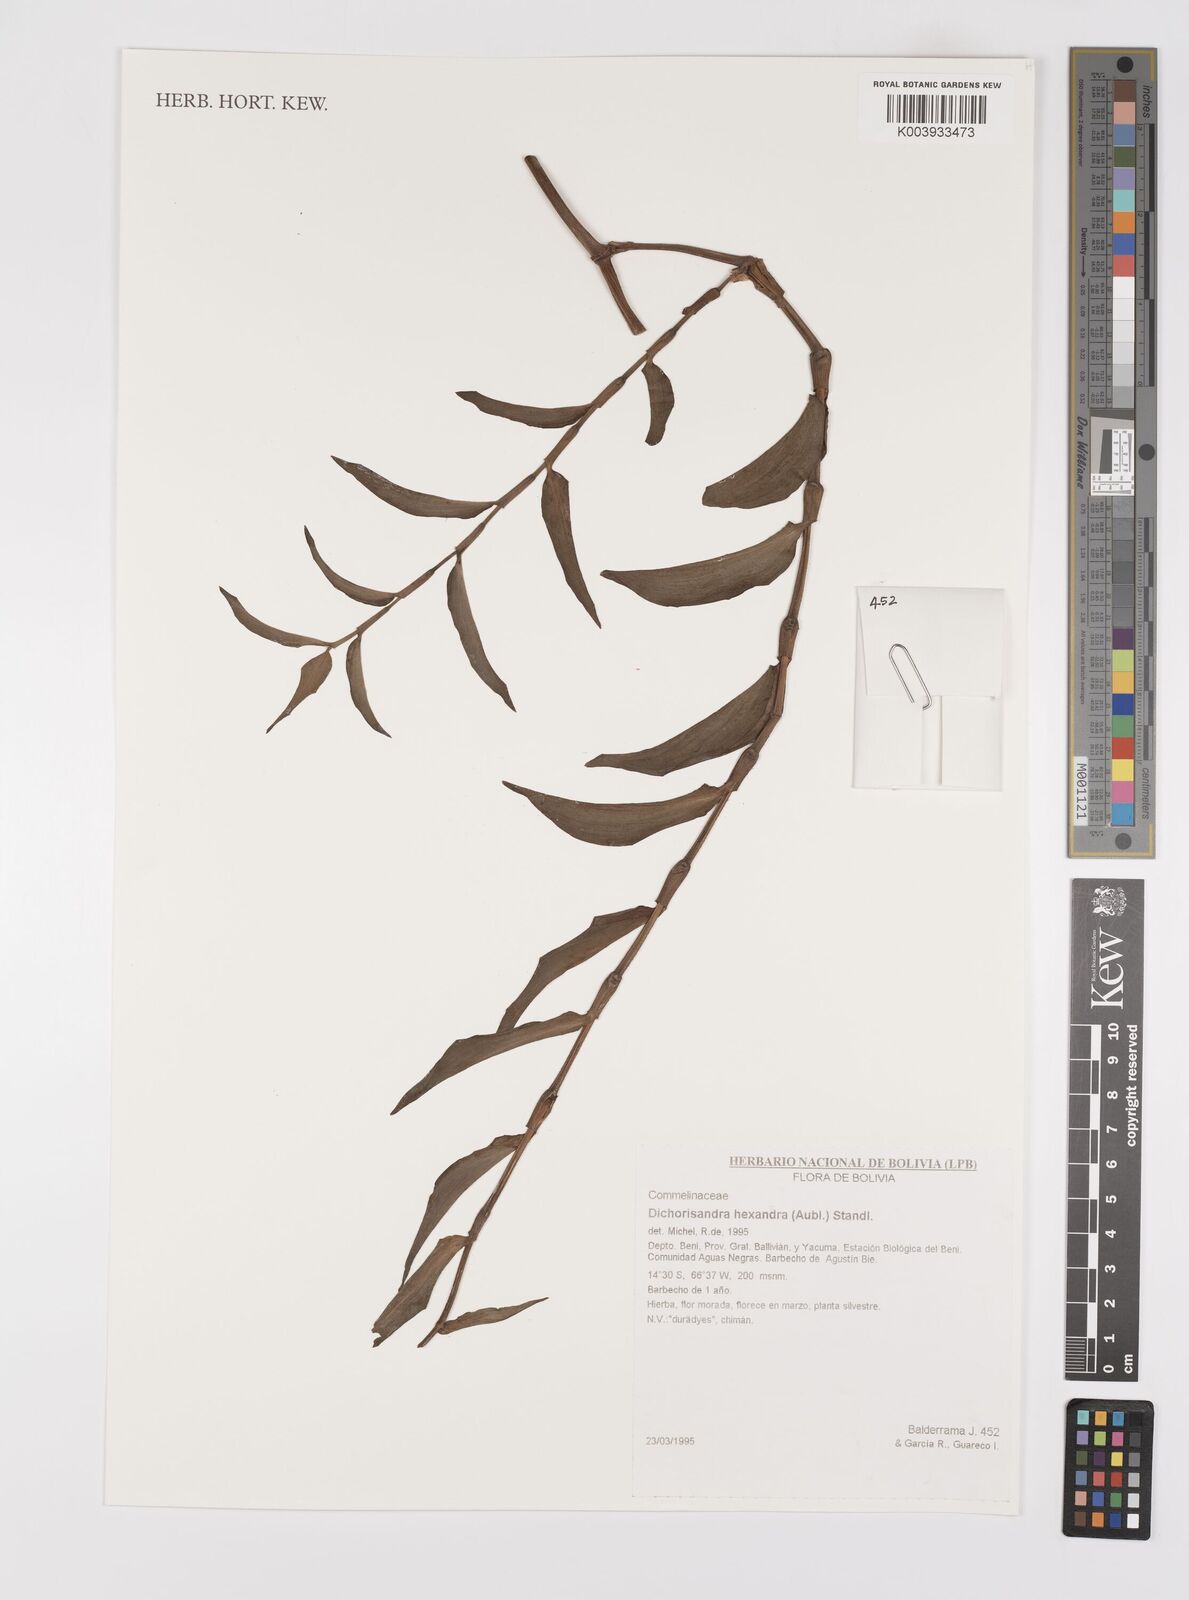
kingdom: Plantae
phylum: Tracheophyta
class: Liliopsida
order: Commelinales
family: Commelinaceae
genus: Dichorisandra
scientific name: Dichorisandra hexandra
